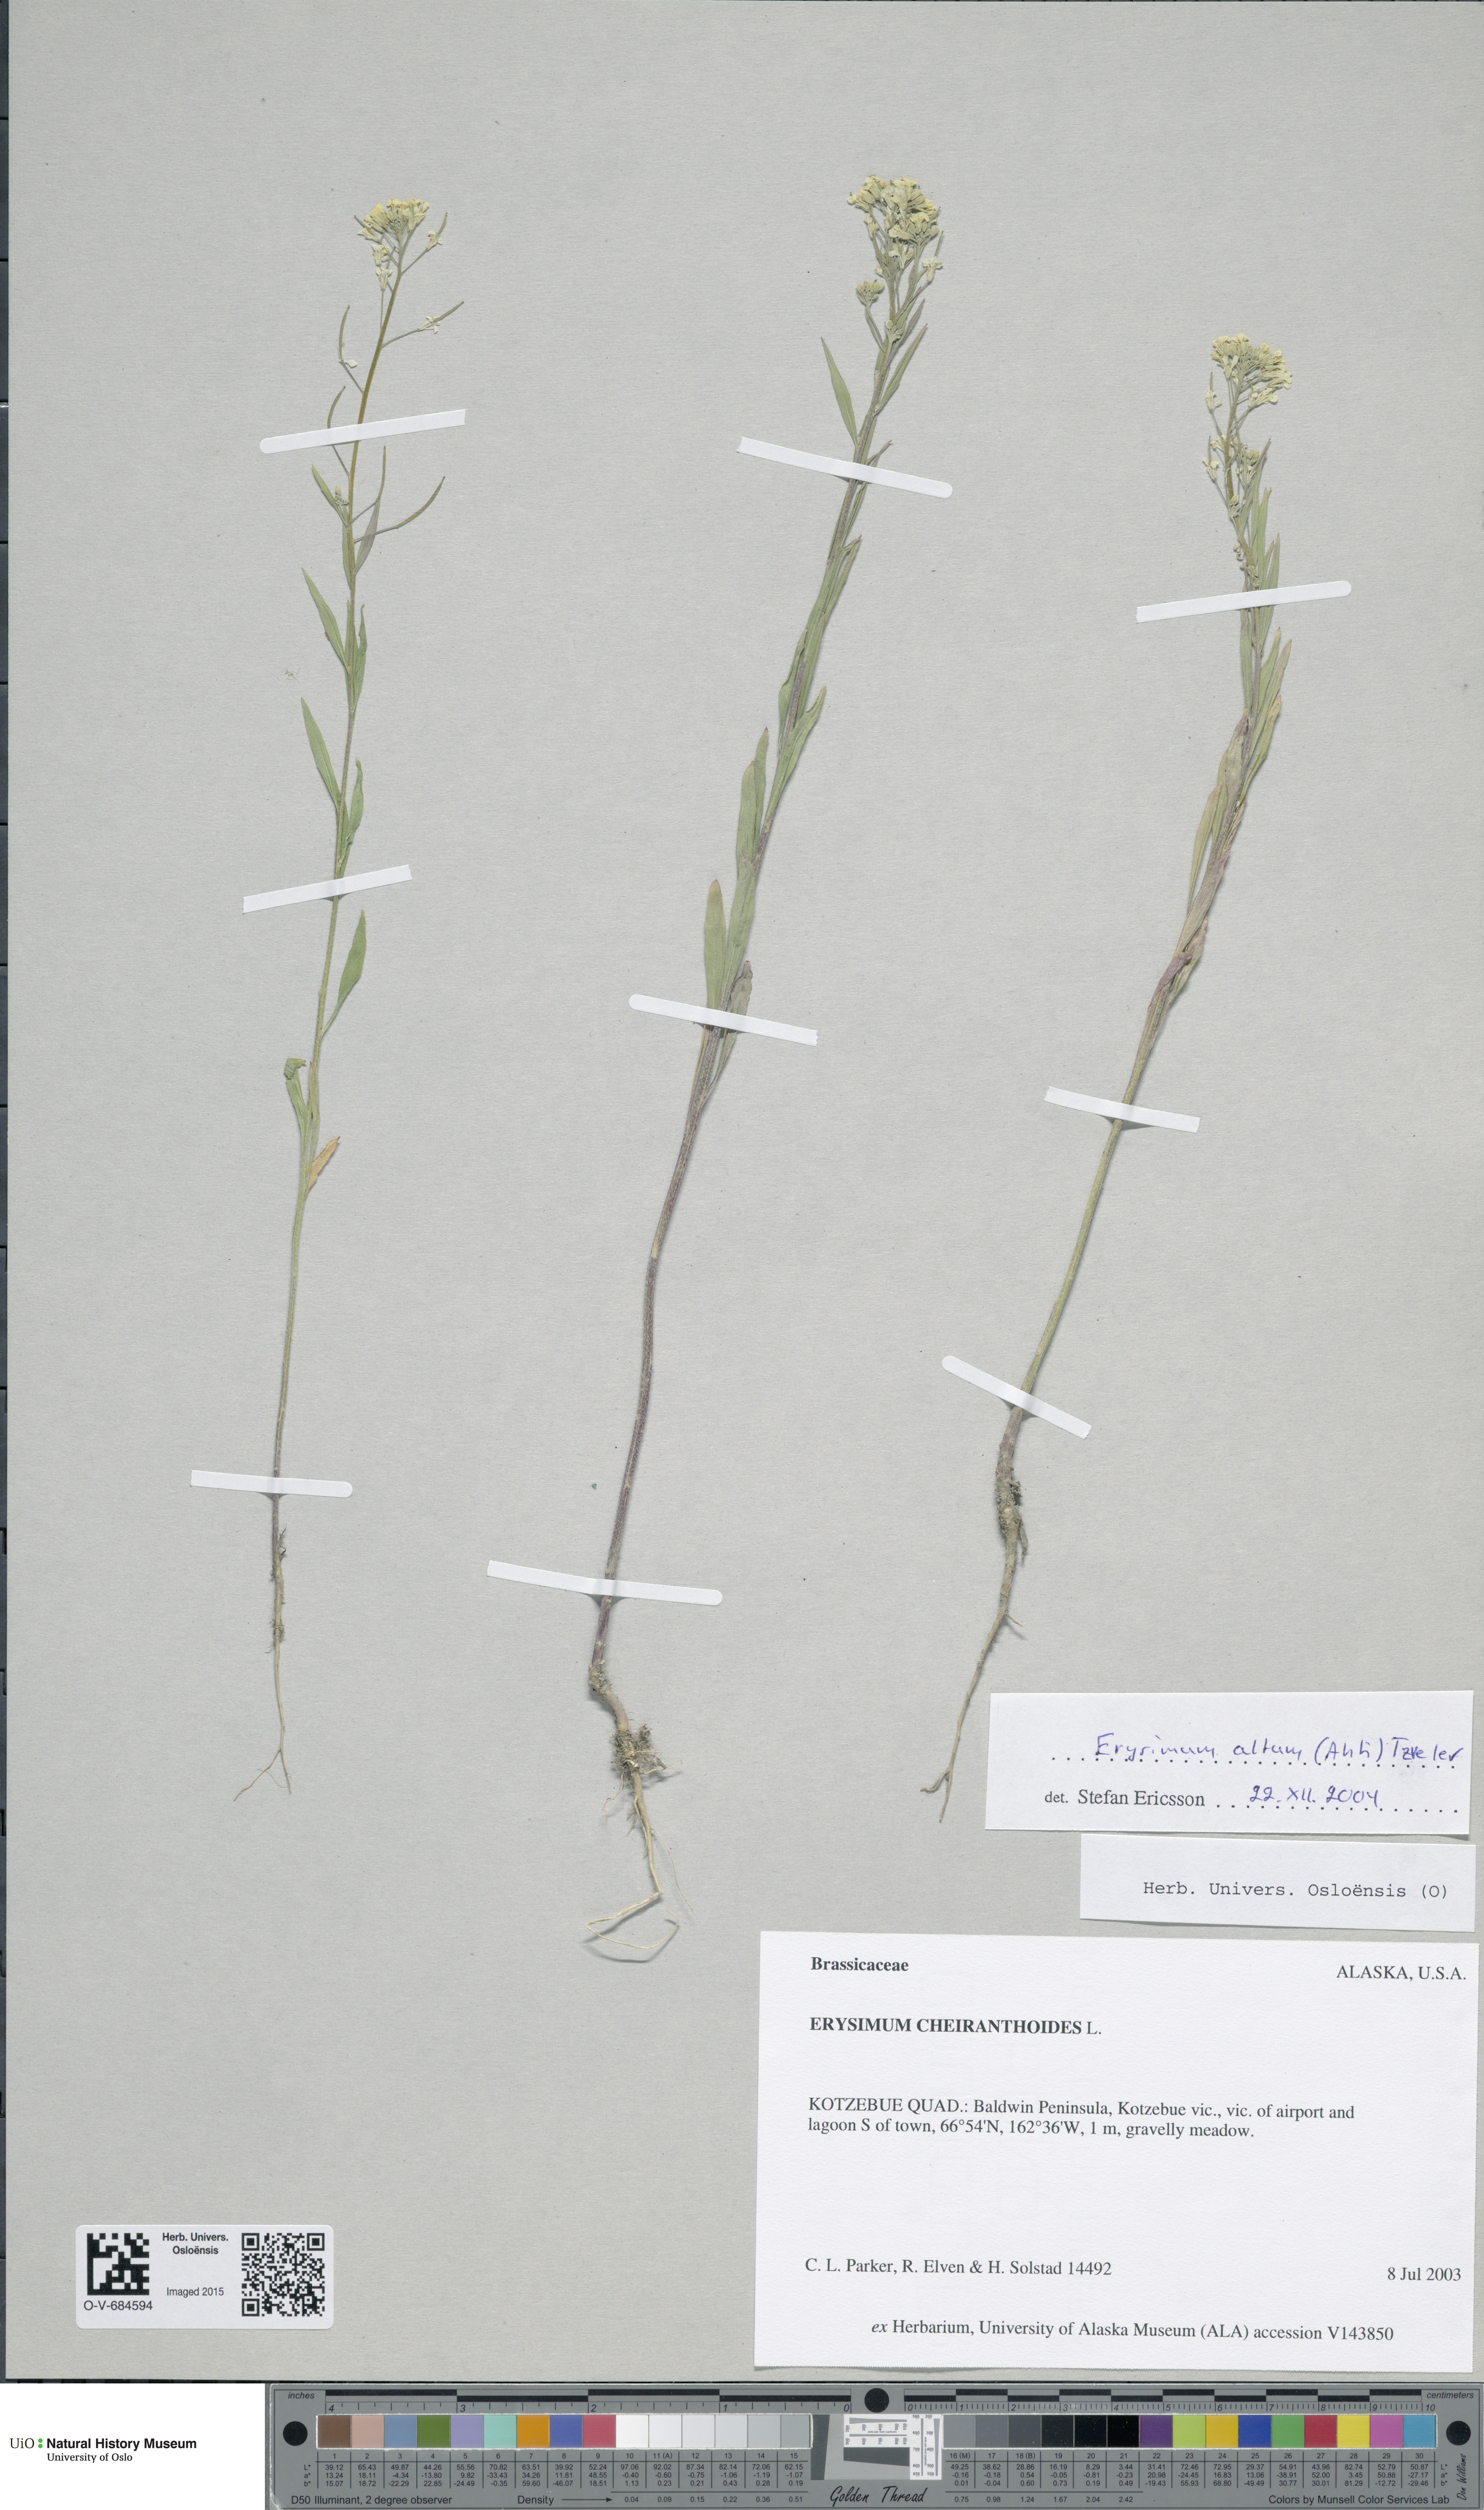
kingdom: Plantae
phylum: Tracheophyta
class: Magnoliopsida
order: Brassicales
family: Brassicaceae
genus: Erysimum
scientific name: Erysimum cheiranthoides
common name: Treacle mustard
